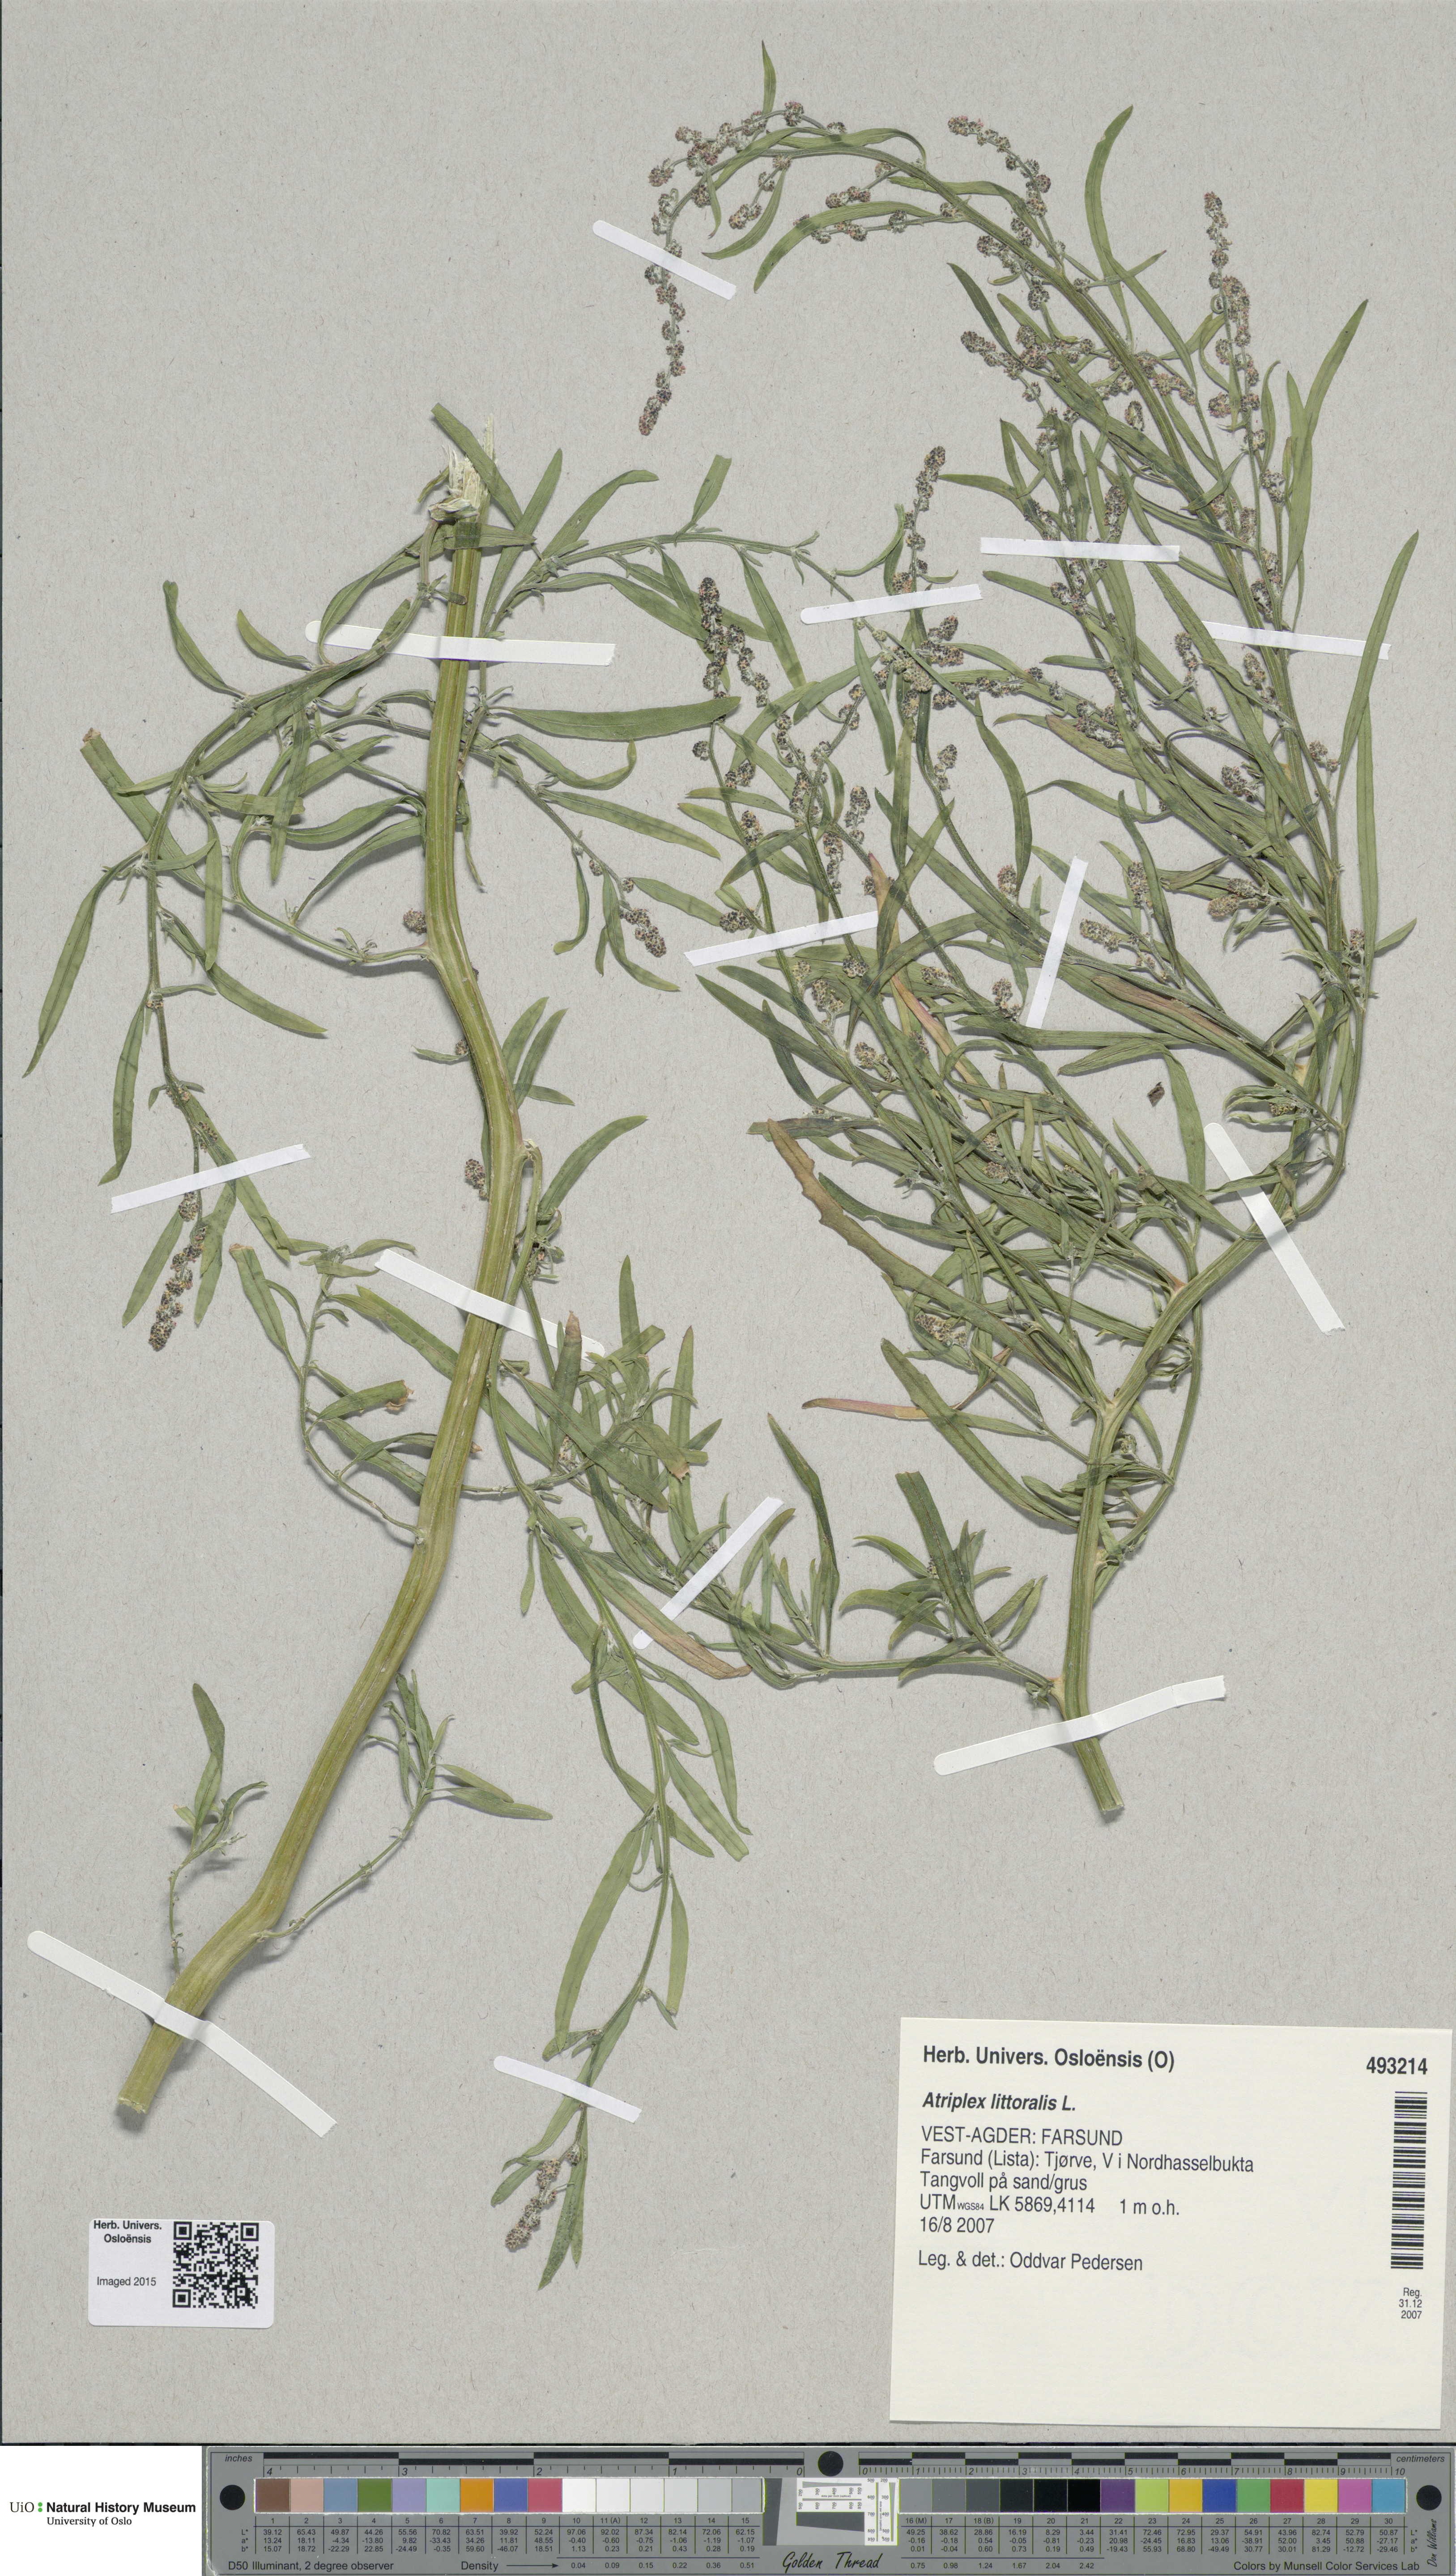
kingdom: Plantae
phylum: Tracheophyta
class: Magnoliopsida
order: Caryophyllales
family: Amaranthaceae
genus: Atriplex
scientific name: Atriplex littoralis
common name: Grass-leaved orache
